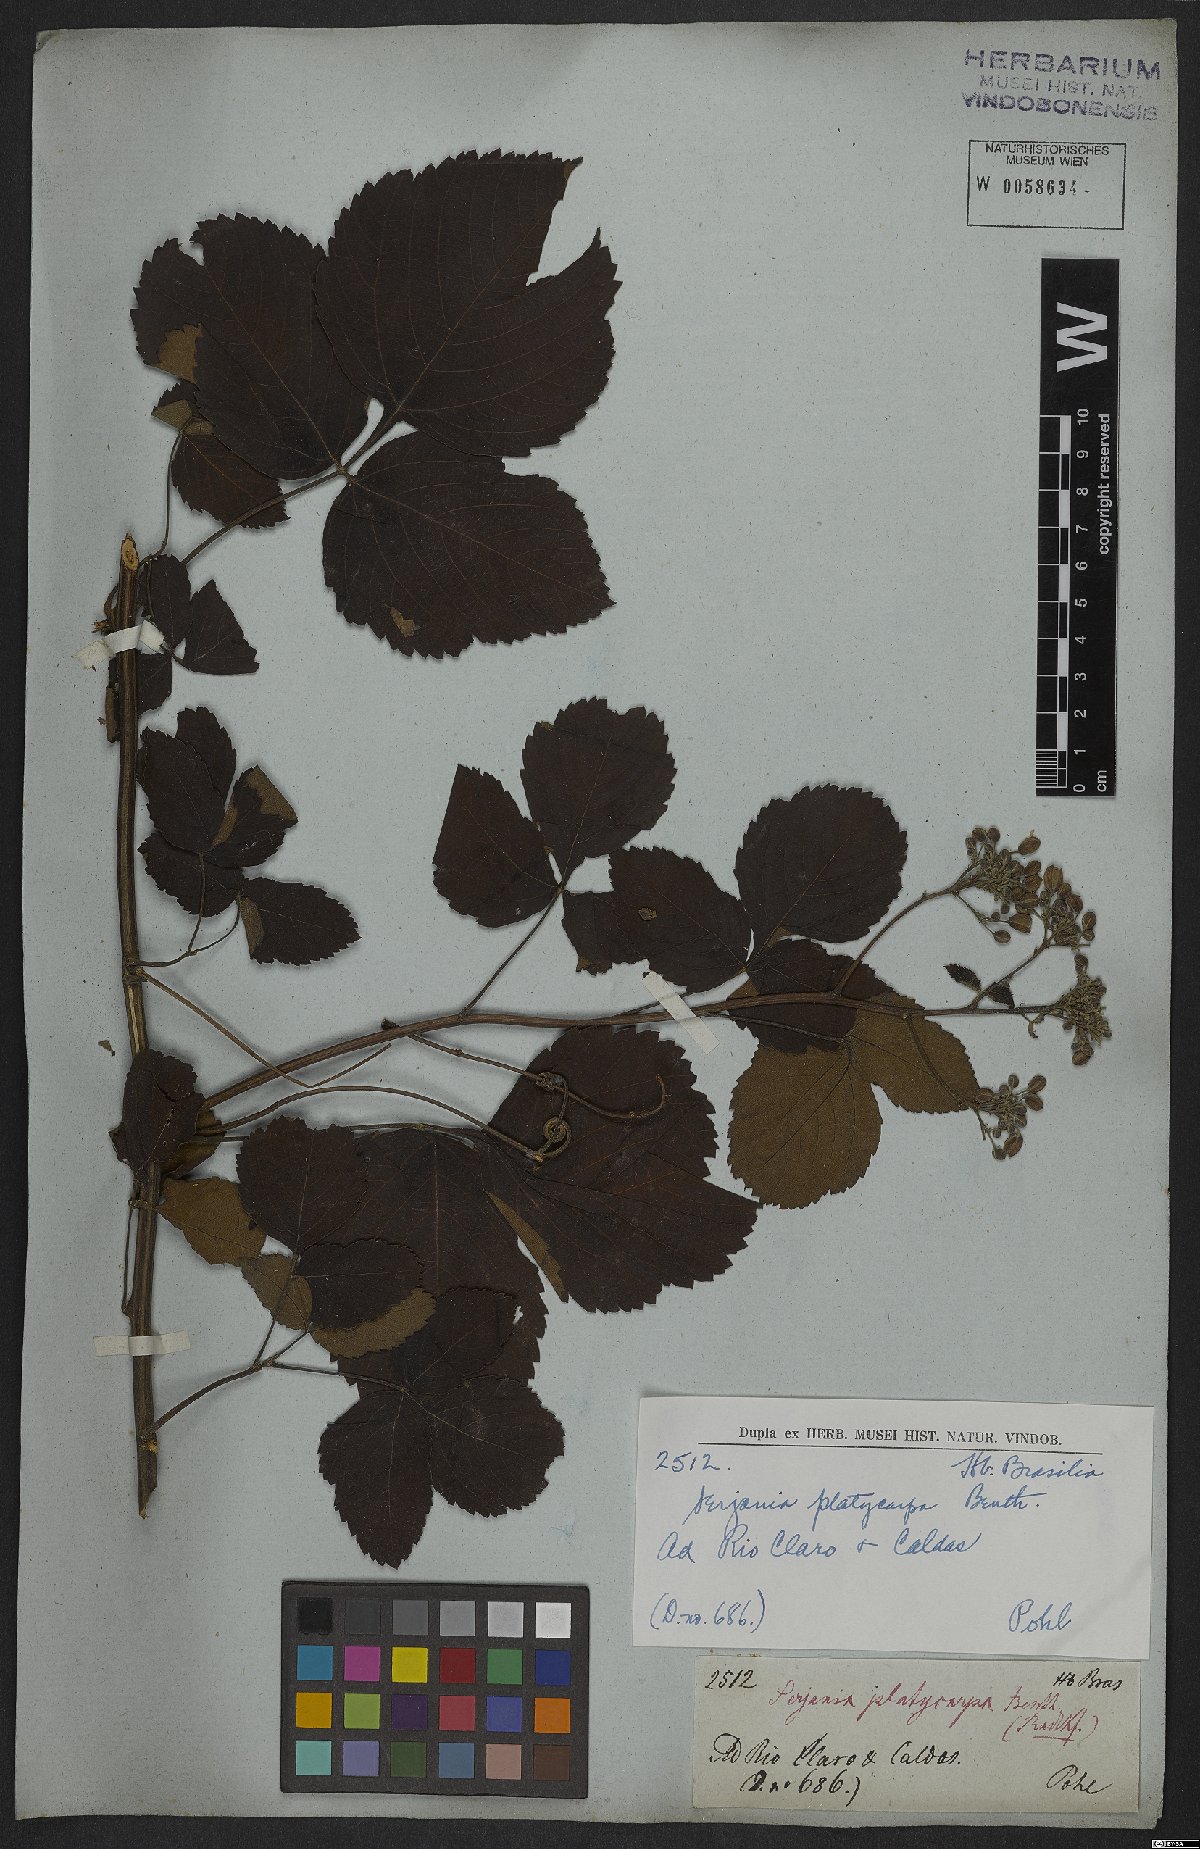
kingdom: Plantae
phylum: Tracheophyta
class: Magnoliopsida
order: Sapindales
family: Sapindaceae
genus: Serjania
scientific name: Serjania platycarpa
